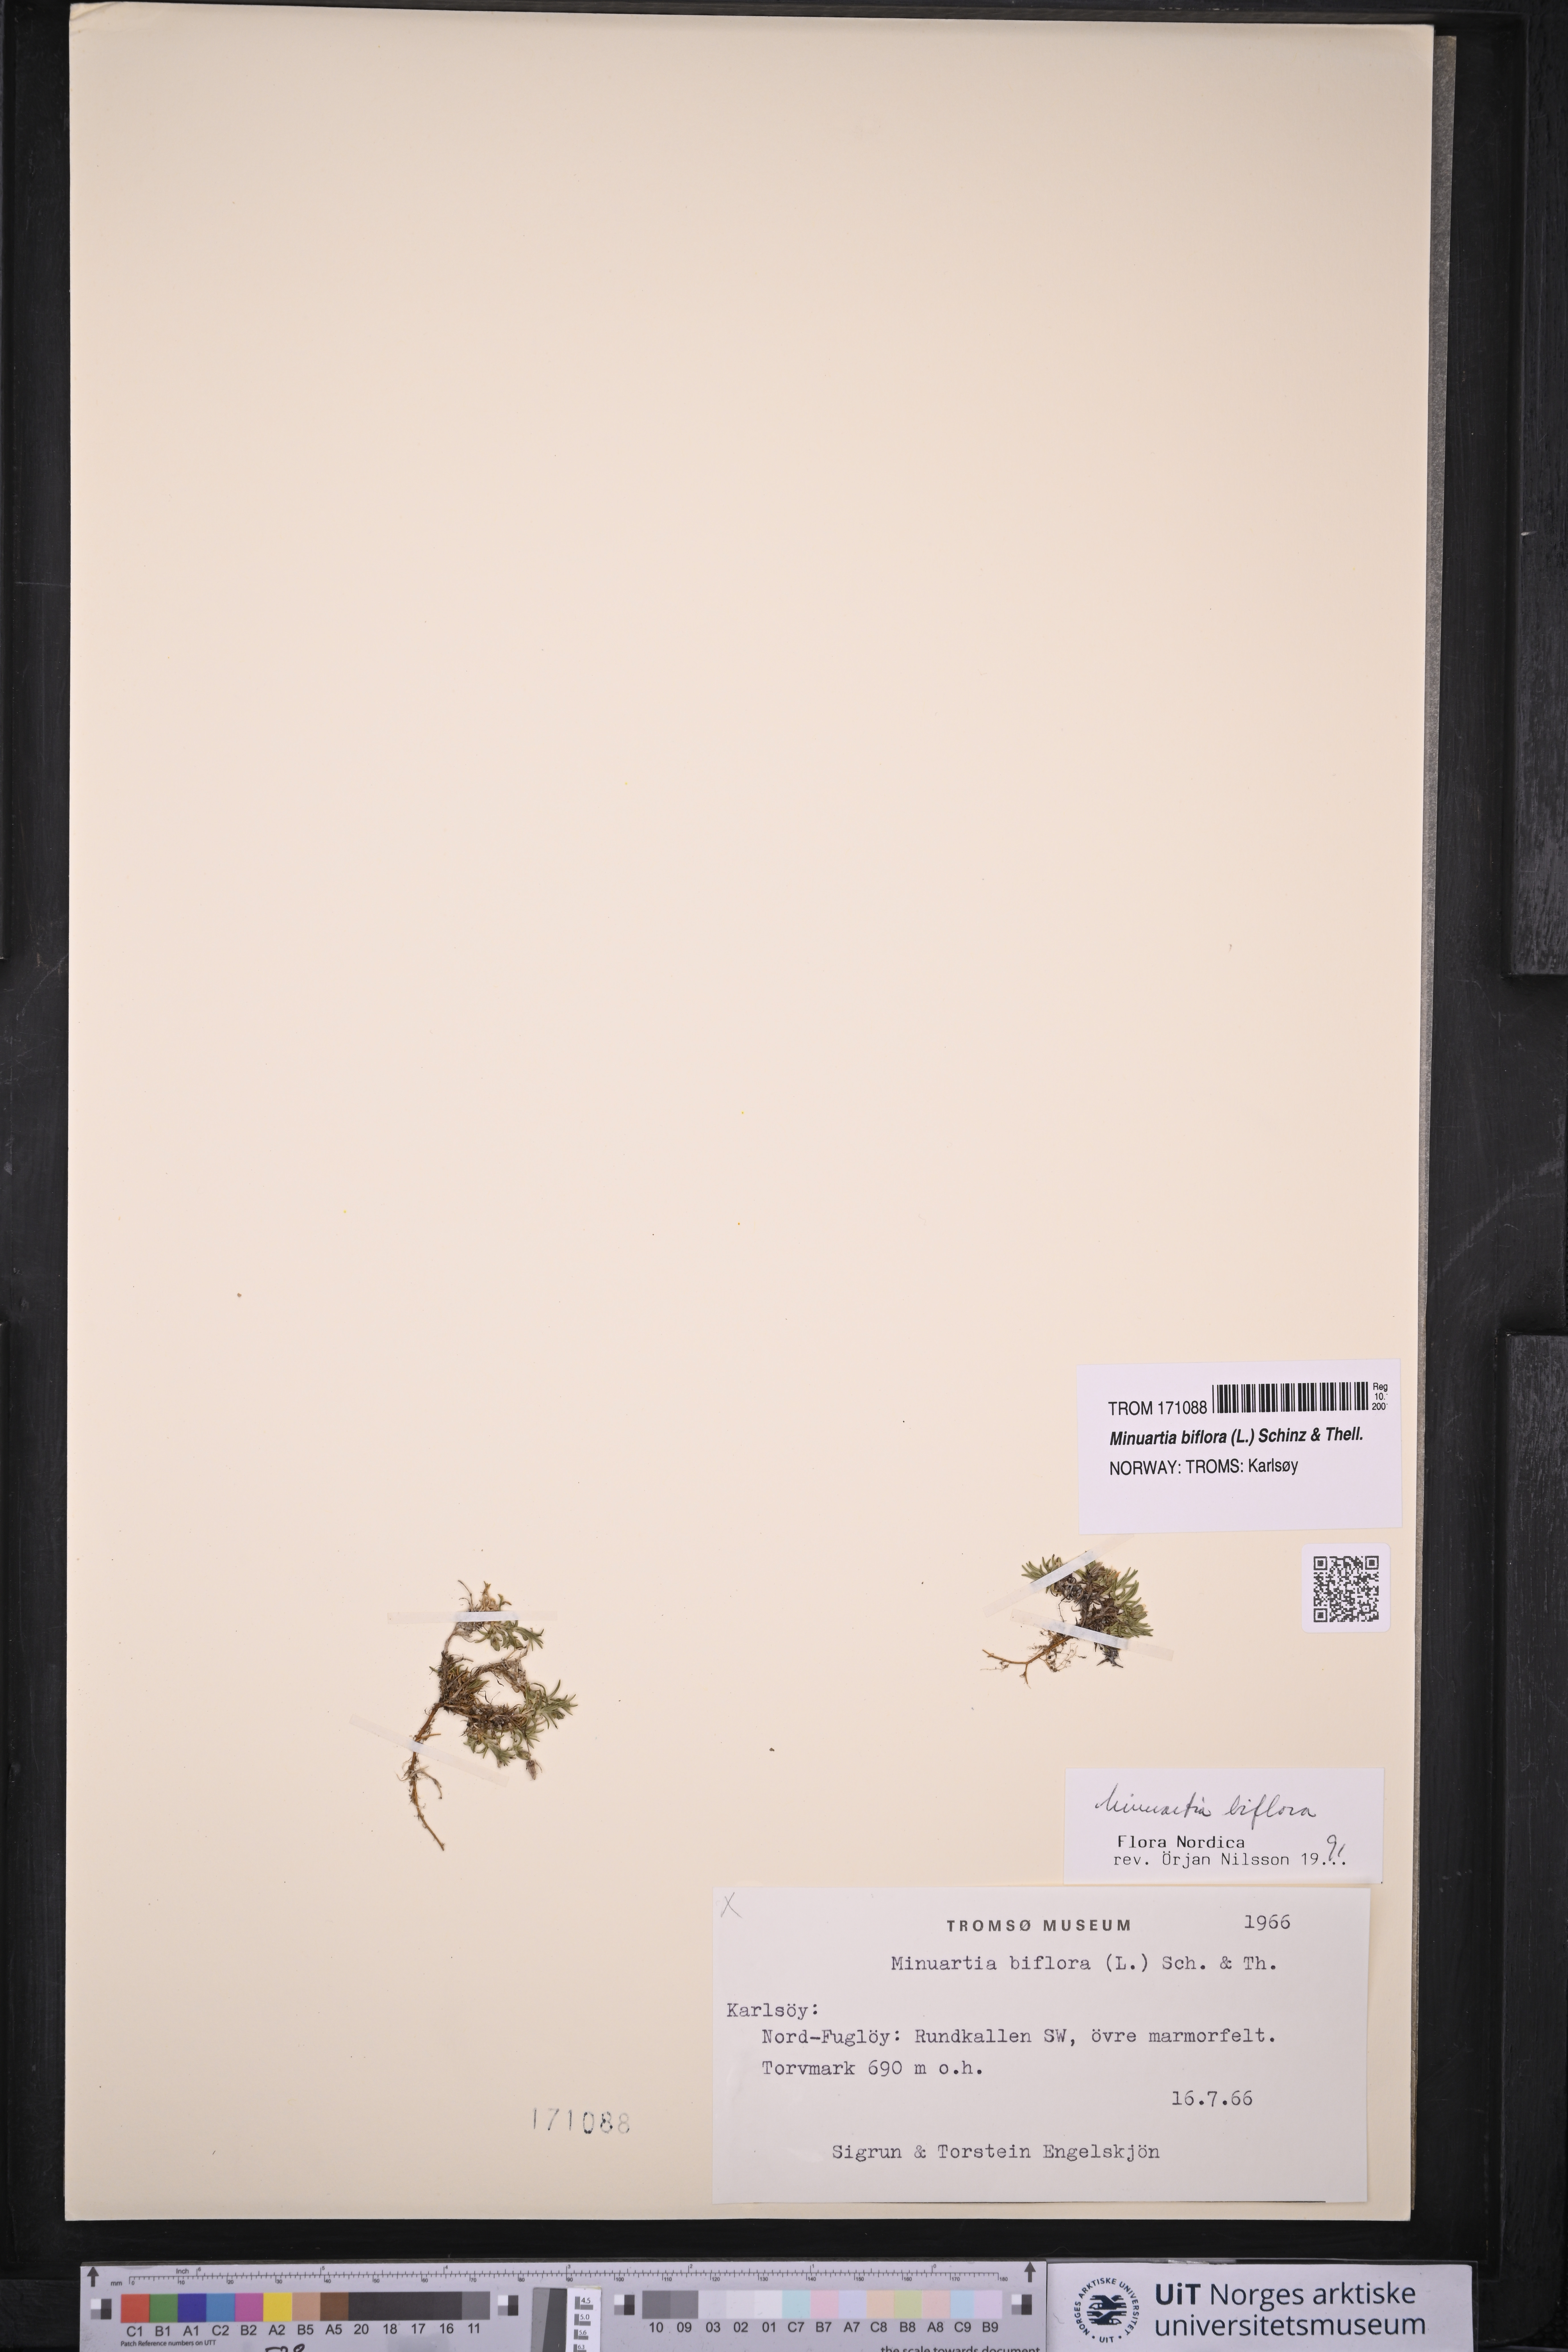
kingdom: Plantae
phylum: Tracheophyta
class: Magnoliopsida
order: Caryophyllales
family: Caryophyllaceae
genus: Cherleria
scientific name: Cherleria biflora
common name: Mountain sandwort
